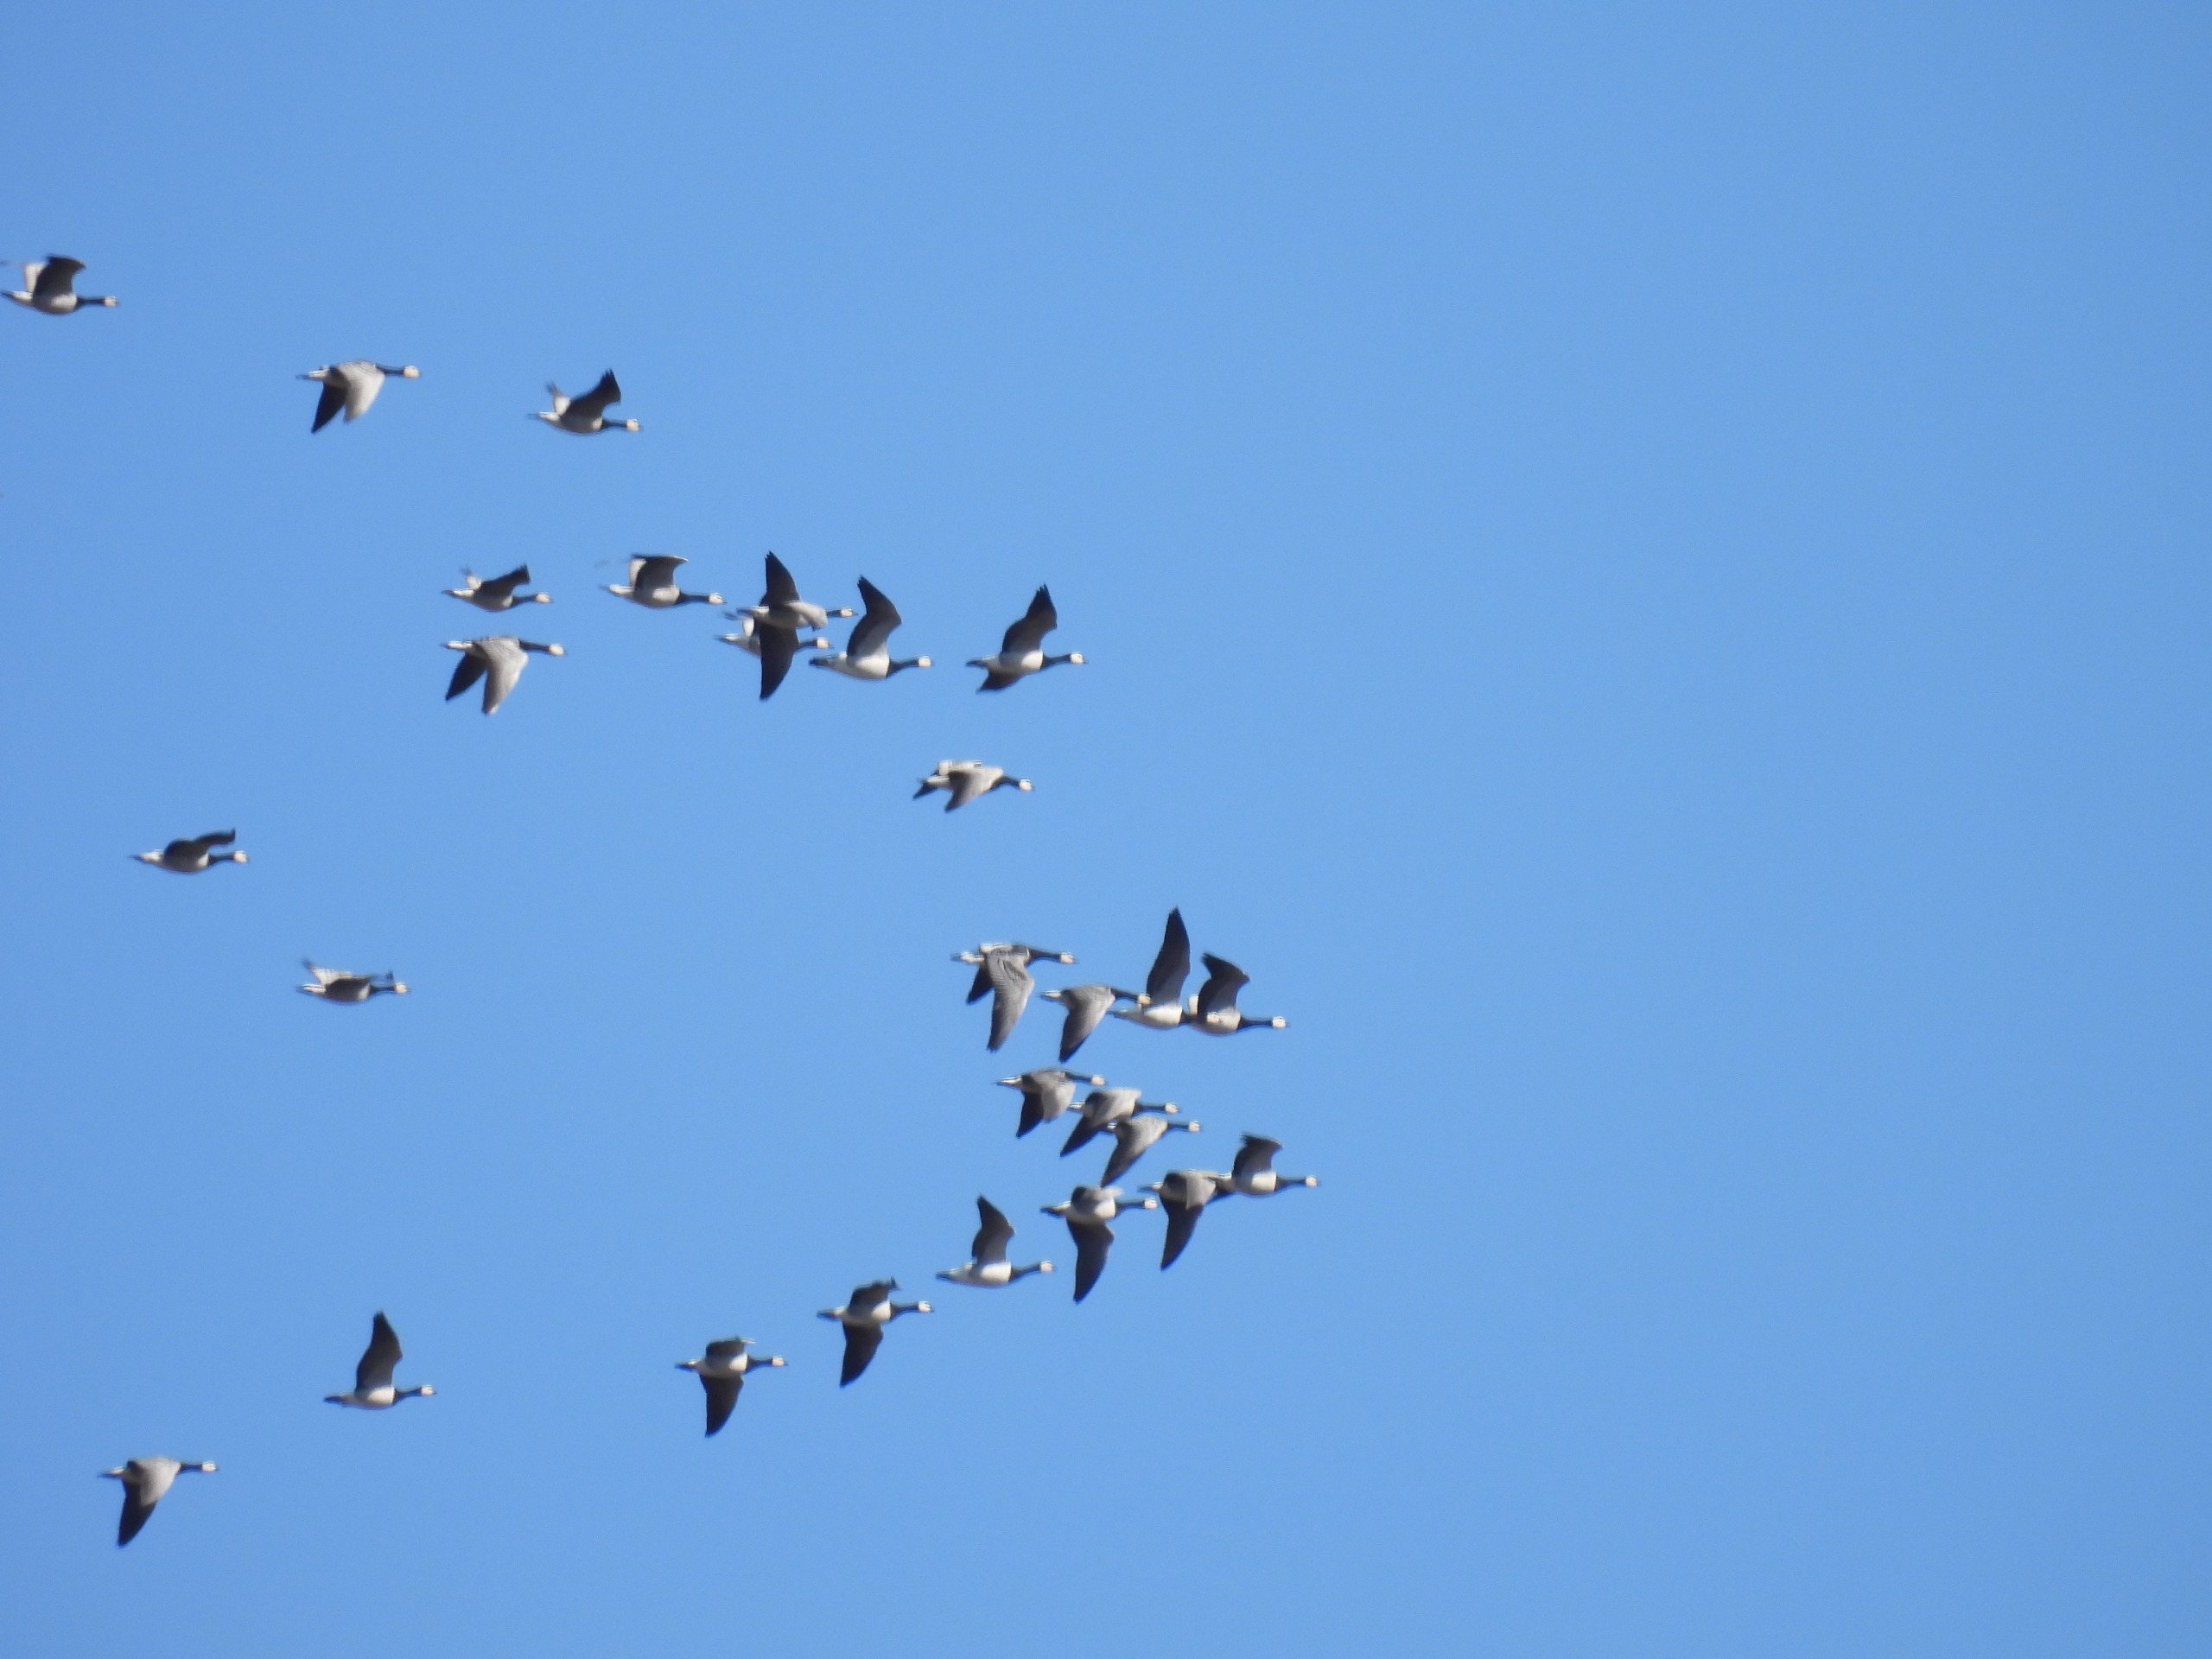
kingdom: Animalia
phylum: Chordata
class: Aves
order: Anseriformes
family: Anatidae
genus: Branta
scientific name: Branta leucopsis
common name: Bramgås
